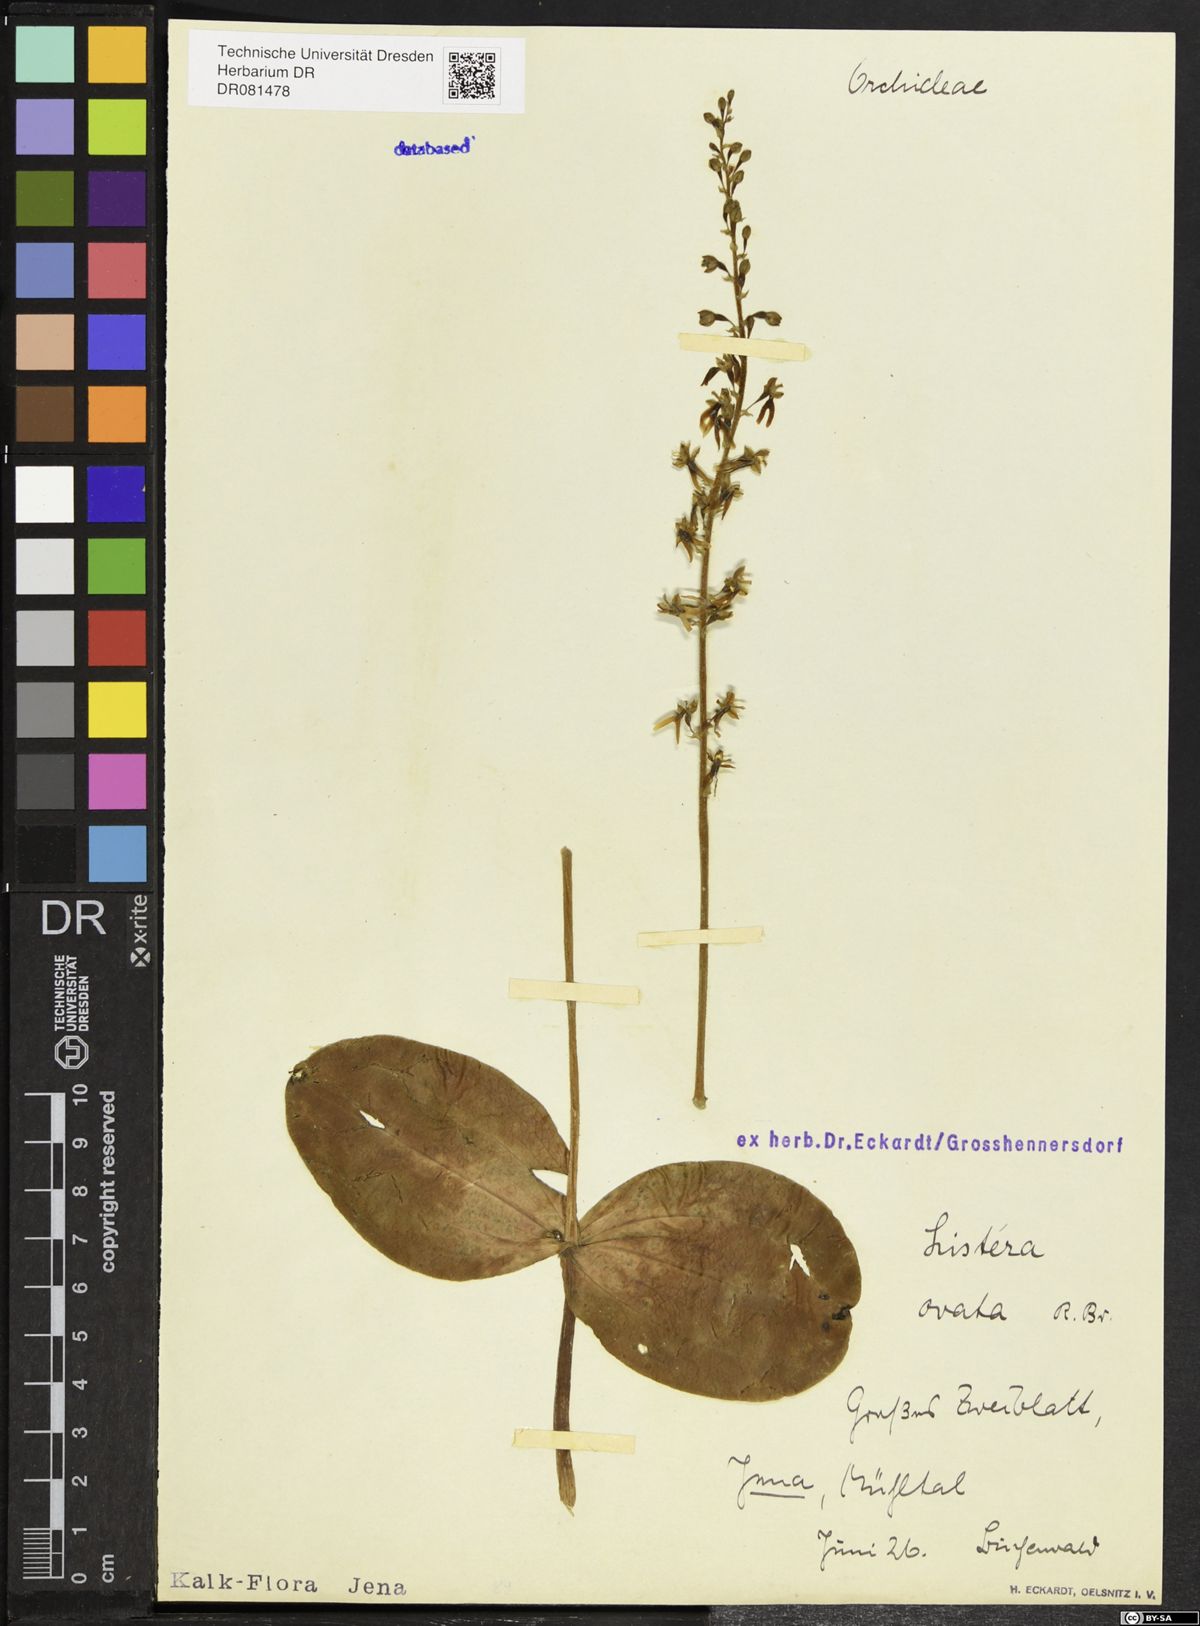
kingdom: Plantae
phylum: Tracheophyta
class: Liliopsida
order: Asparagales
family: Orchidaceae
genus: Neottia
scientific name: Neottia ovata
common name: Common twayblade
